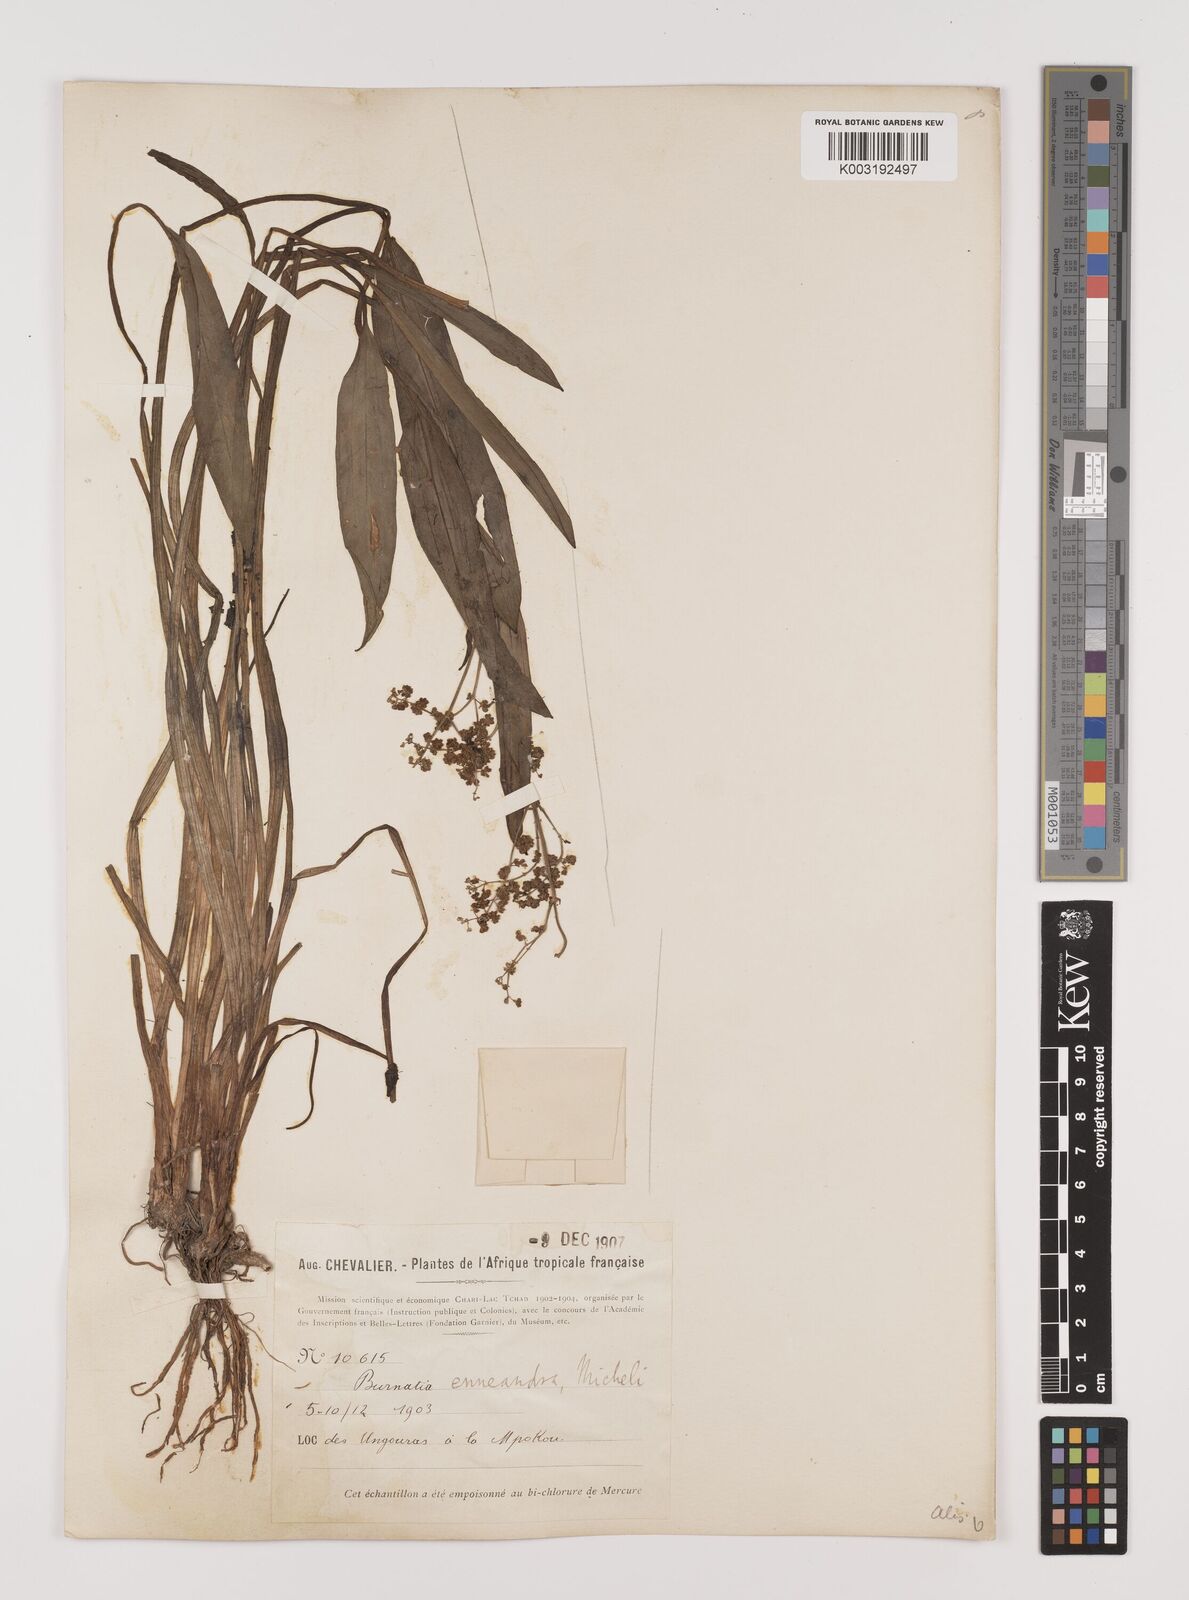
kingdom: Plantae
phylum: Tracheophyta
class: Liliopsida
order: Alismatales
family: Alismataceae
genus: Burnatia
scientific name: Burnatia enneandra
